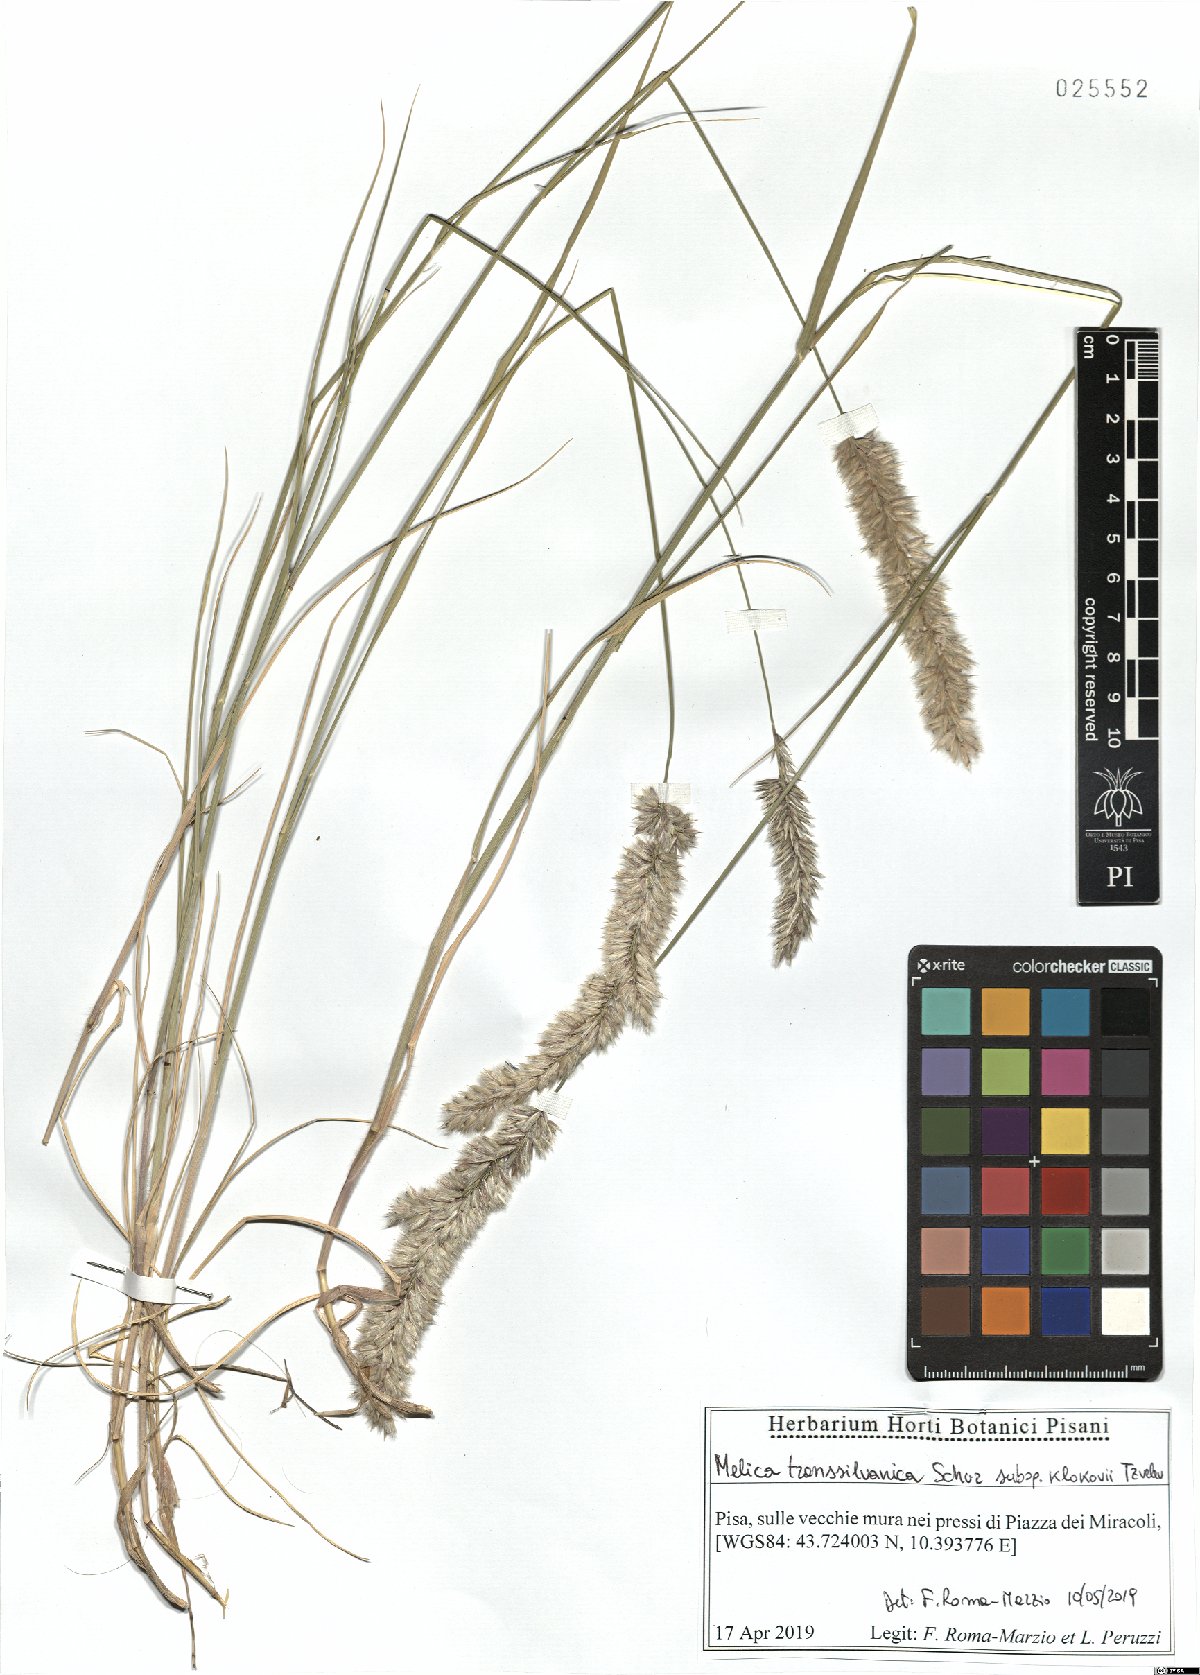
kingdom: Plantae
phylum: Tracheophyta
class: Liliopsida
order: Poales
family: Poaceae
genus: Melica
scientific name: Melica transsilvanica
